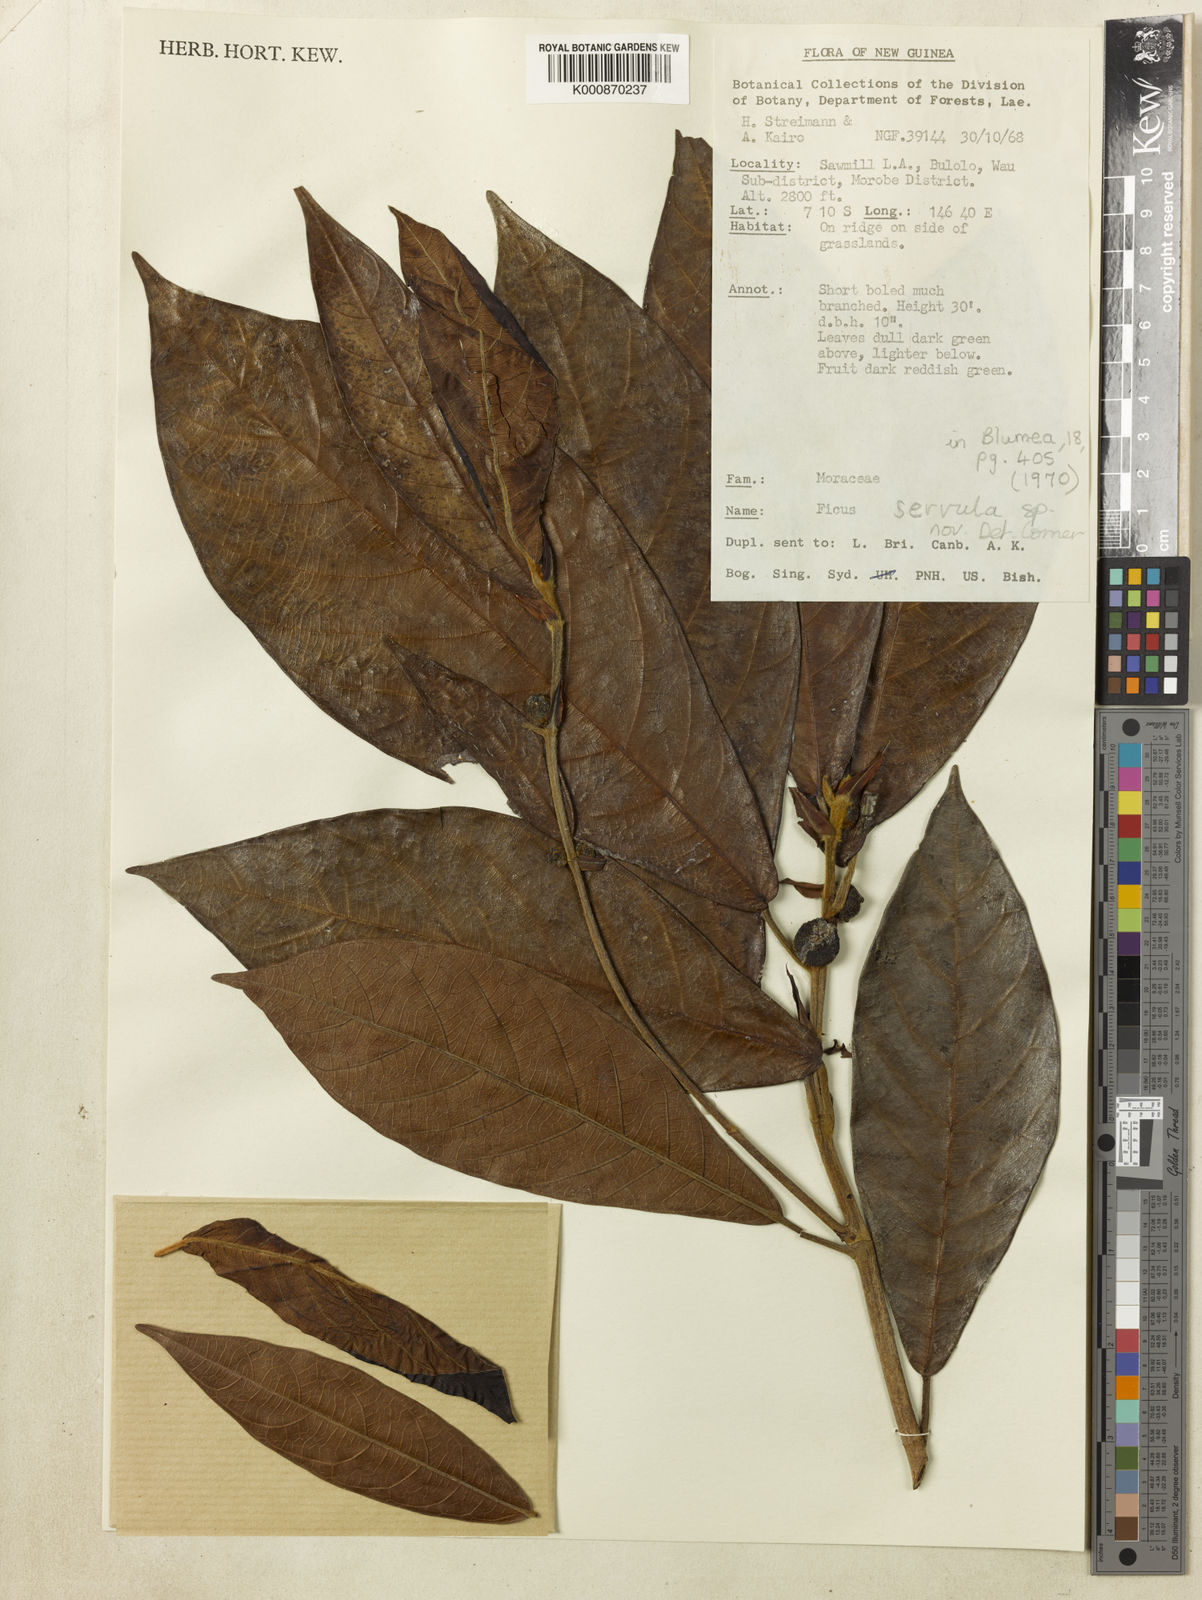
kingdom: Plantae
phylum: Tracheophyta
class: Magnoliopsida
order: Rosales
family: Moraceae
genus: Ficus
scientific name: Ficus pilulifera
